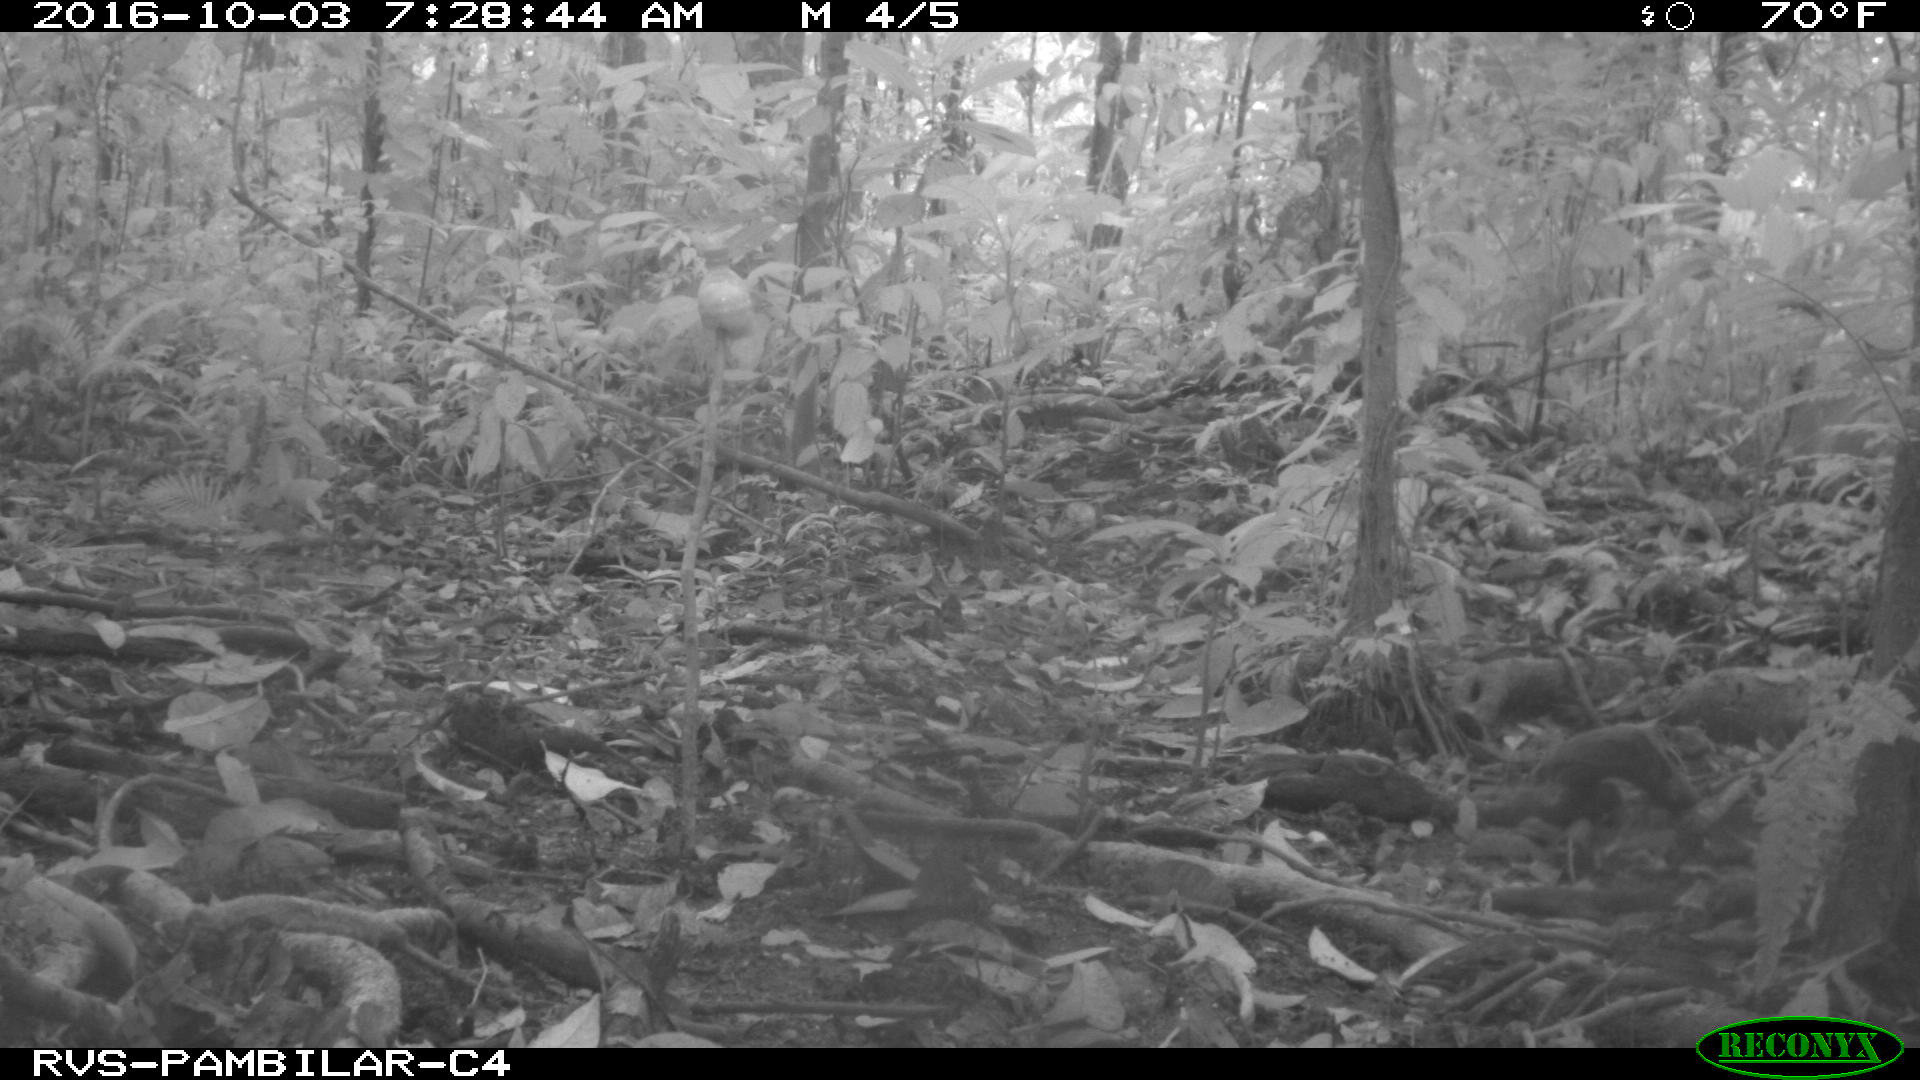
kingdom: Animalia
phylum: Chordata
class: Mammalia
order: Artiodactyla
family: Tayassuidae
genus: Tayassu
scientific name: Tayassu pecari
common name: White-lipped peccary
